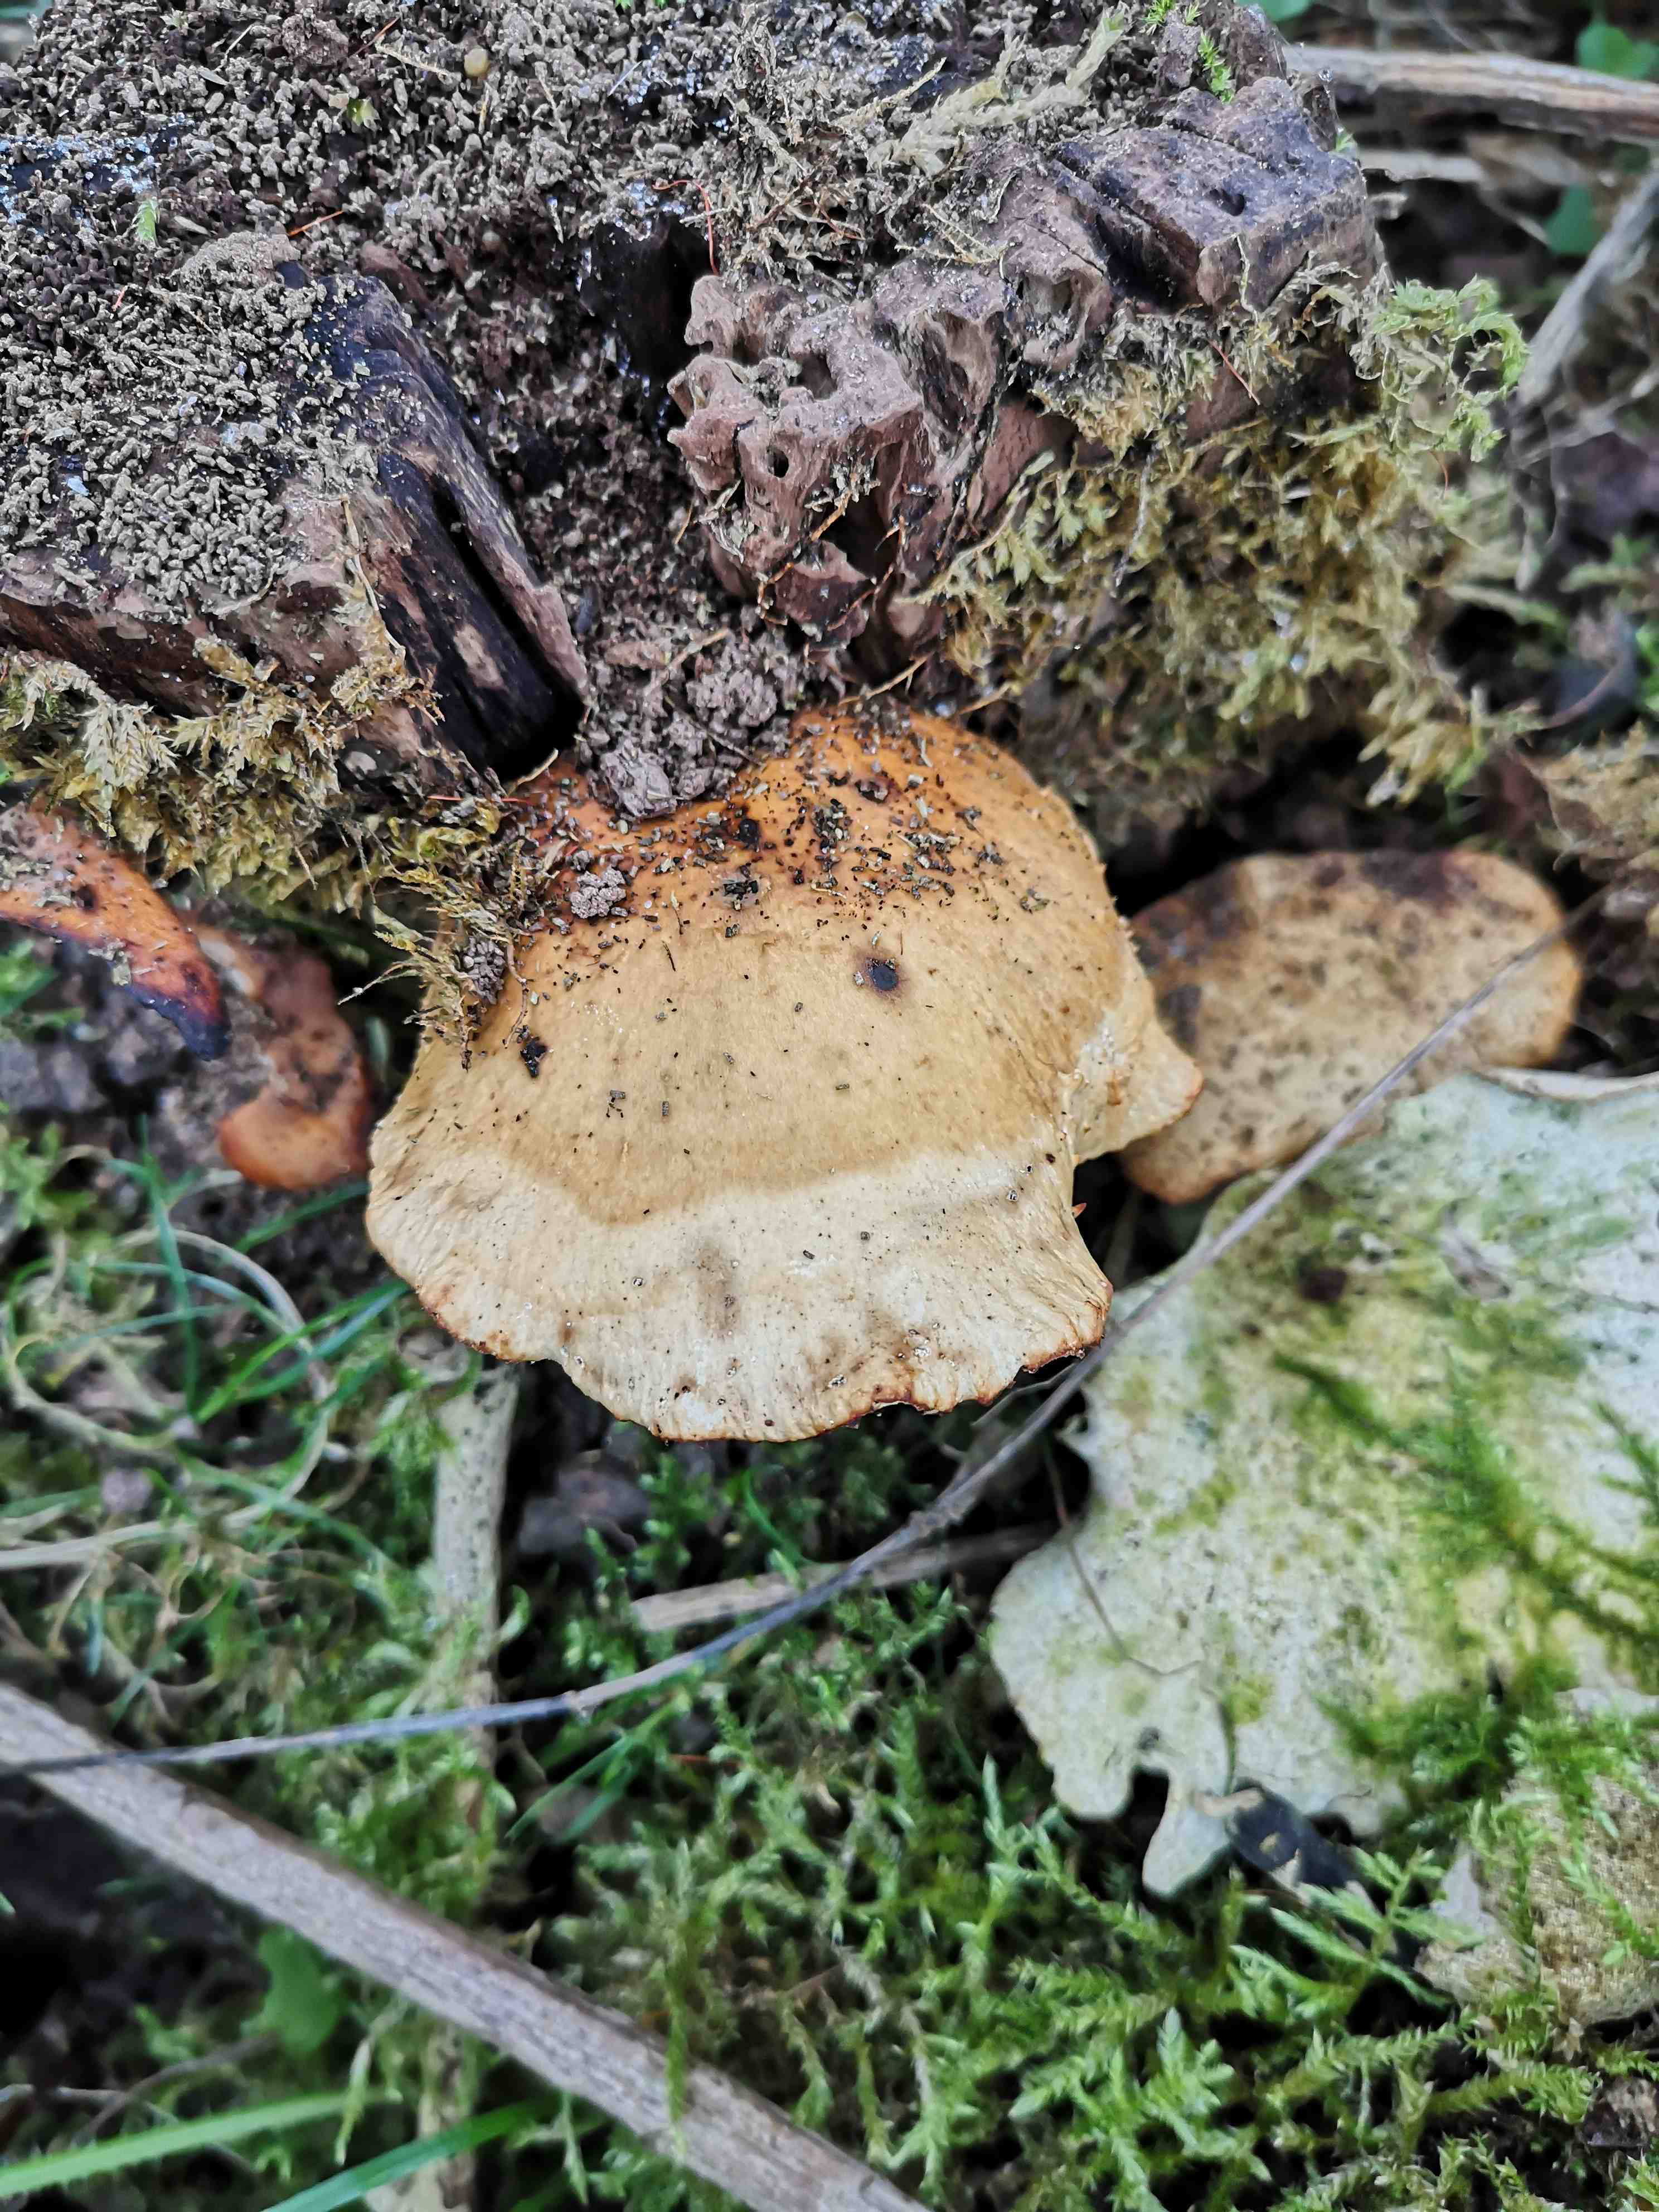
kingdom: Fungi
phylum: Basidiomycota
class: Agaricomycetes
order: Polyporales
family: Polyporaceae
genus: Cerioporus
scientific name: Cerioporus varius
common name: foranderlig stilkporesvamp
